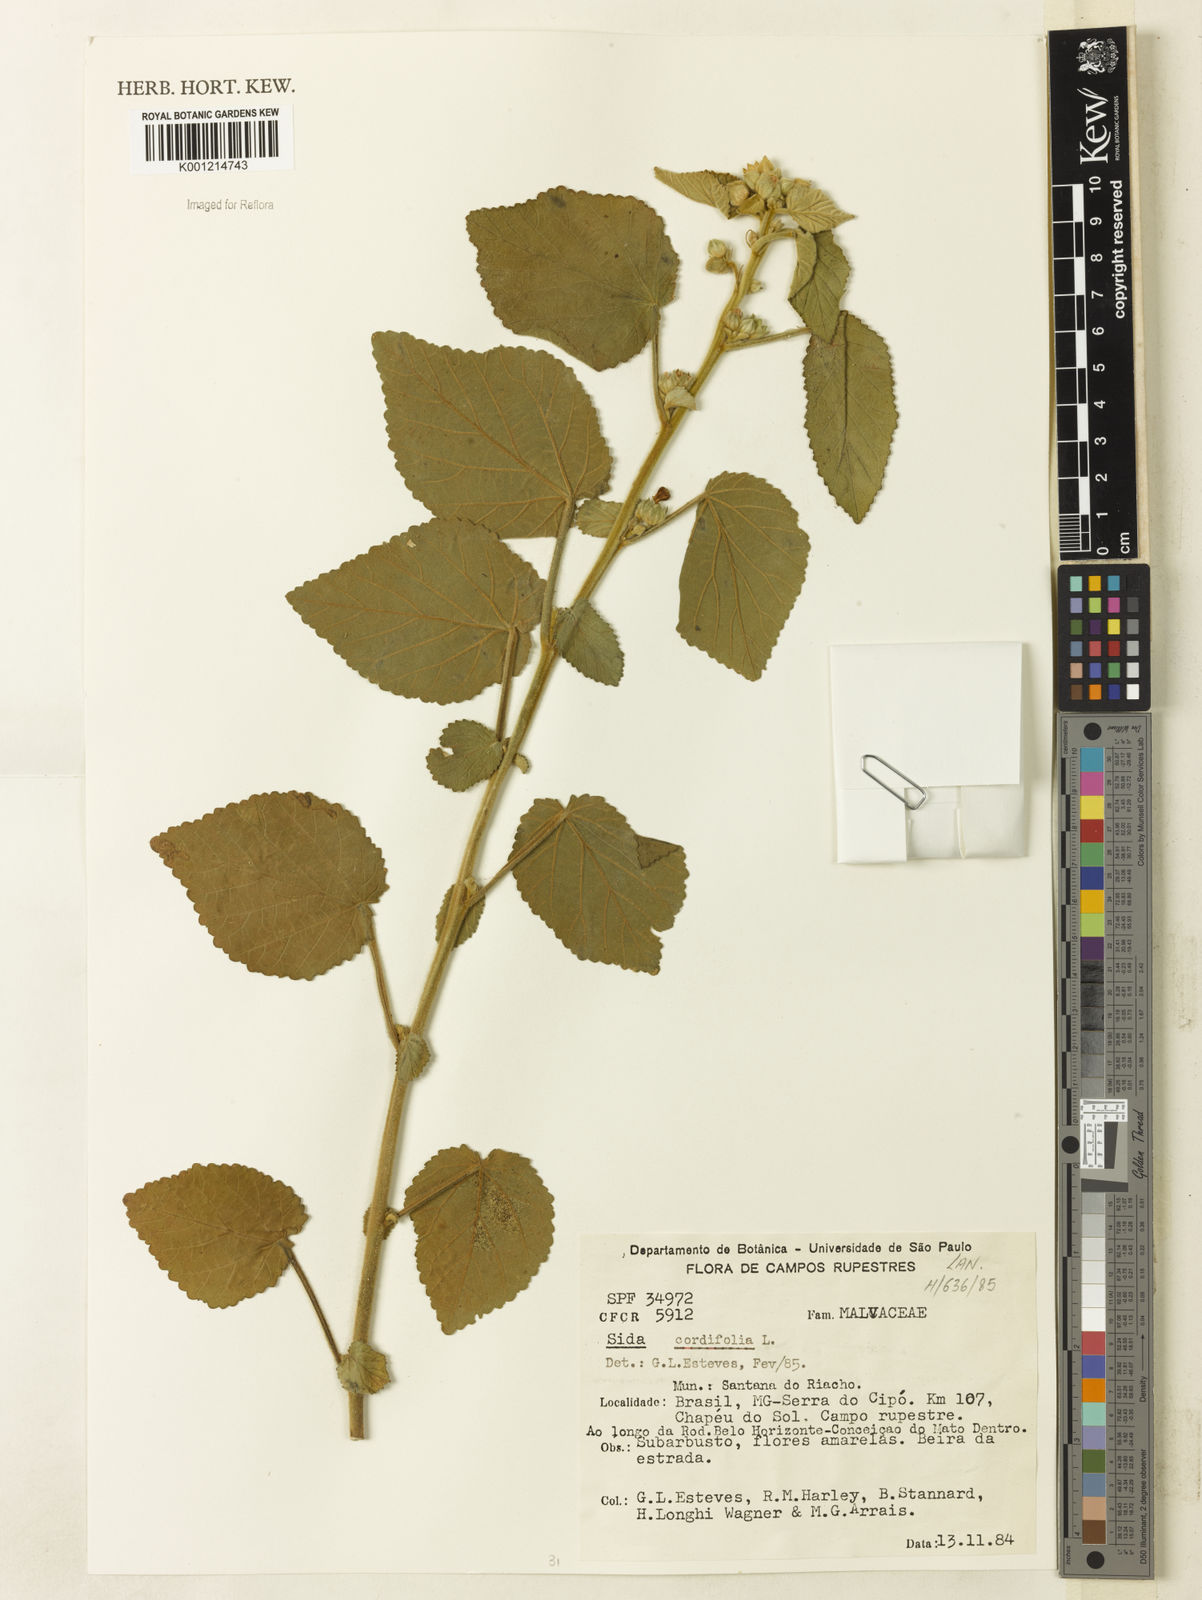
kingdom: Plantae
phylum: Tracheophyta
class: Magnoliopsida
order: Malvales
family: Malvaceae
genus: Sida
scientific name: Sida cordifolia
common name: Ilima
